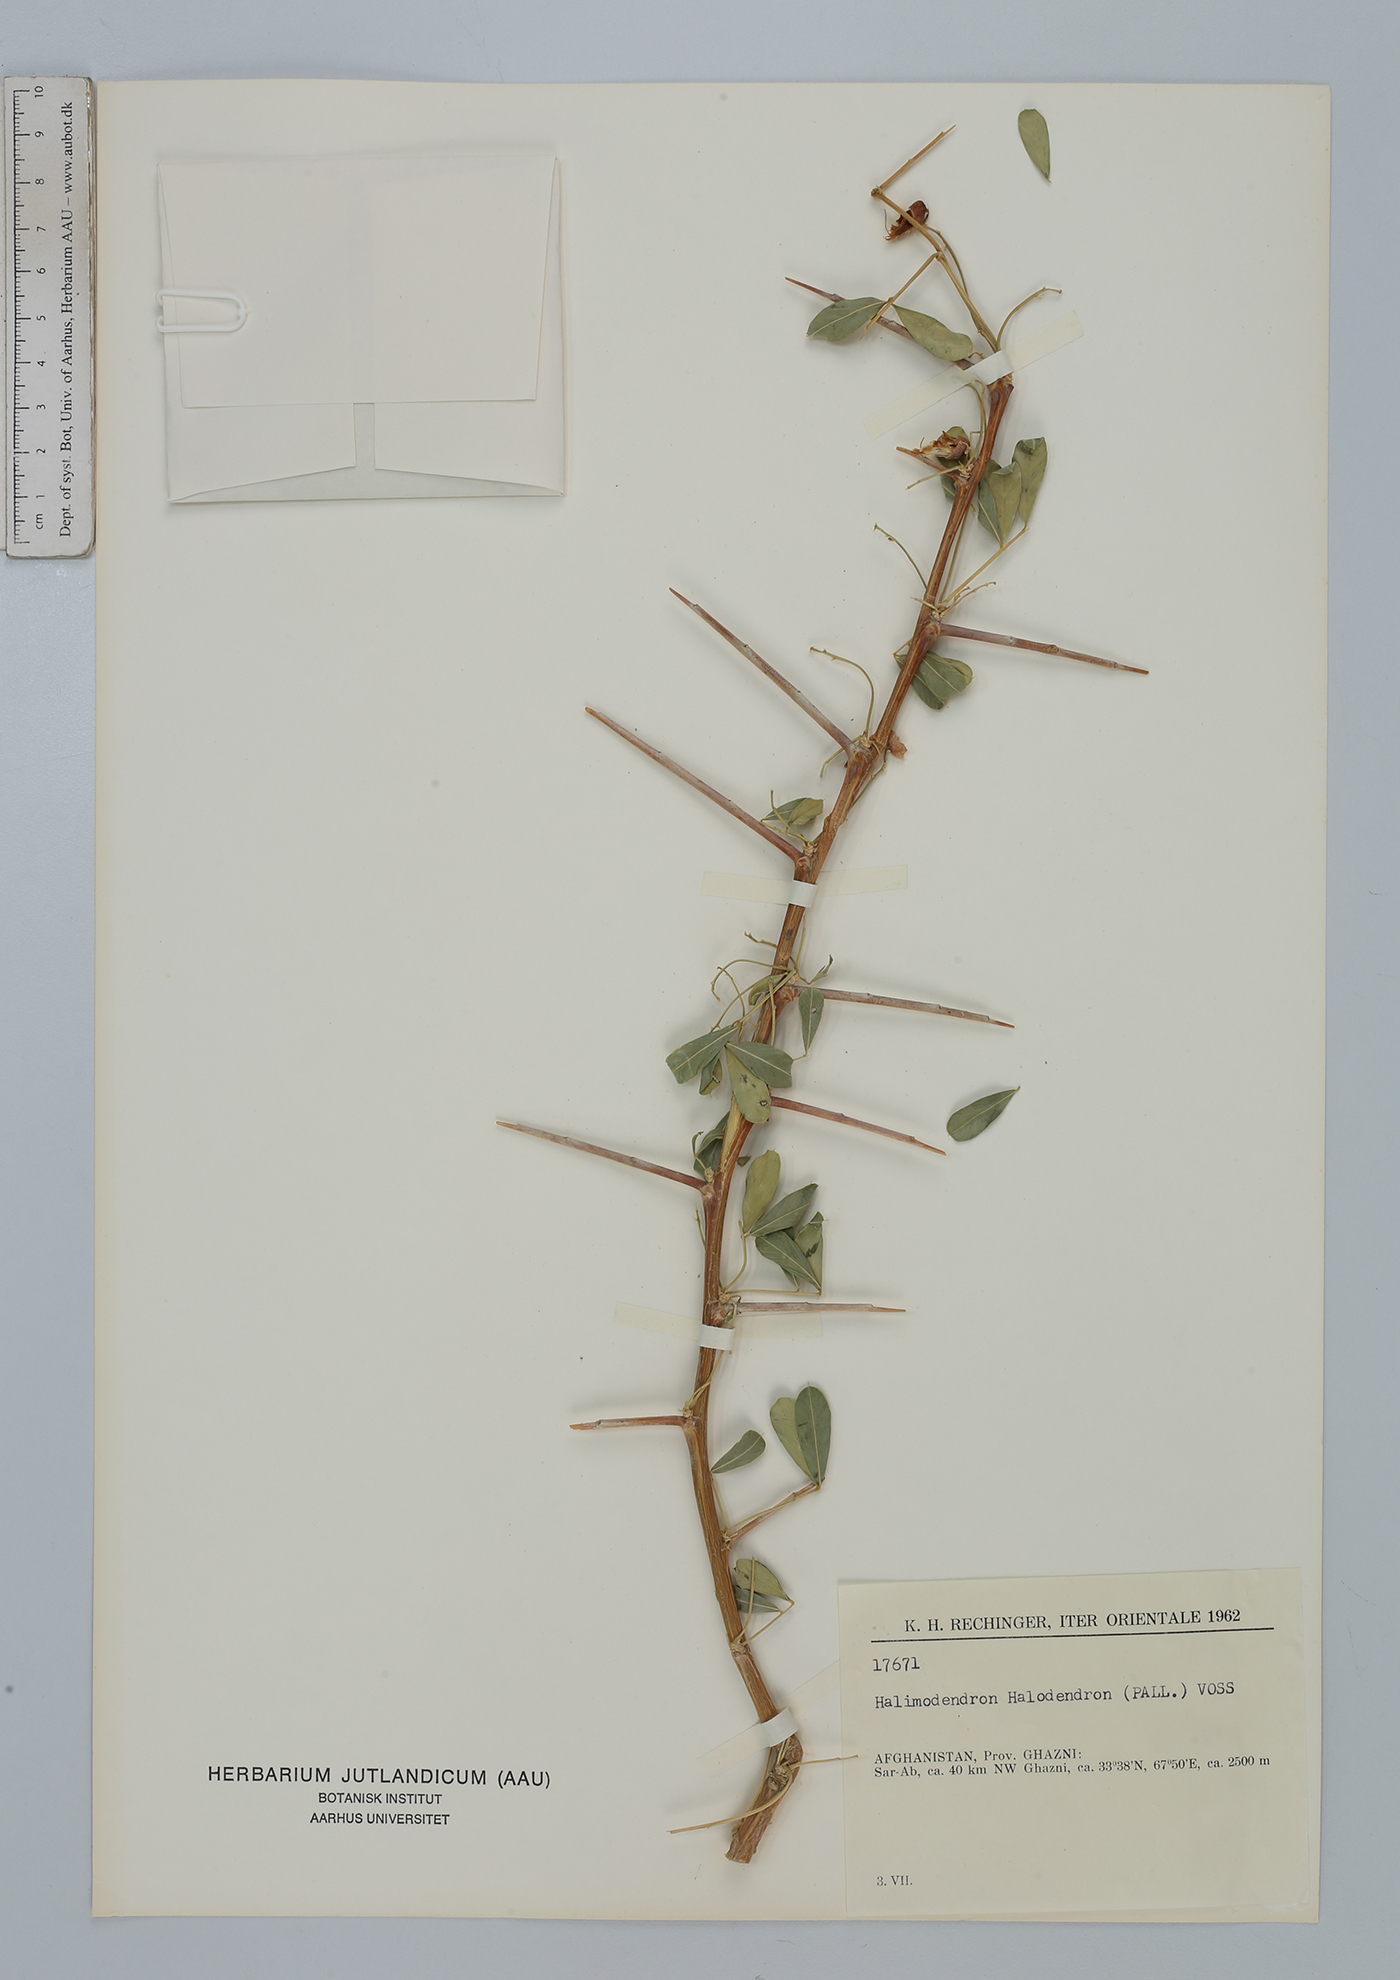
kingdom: Plantae
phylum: Tracheophyta
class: Magnoliopsida
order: Fabales
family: Fabaceae
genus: Caragana
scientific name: Caragana halodendron
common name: Siberian salt-tree
